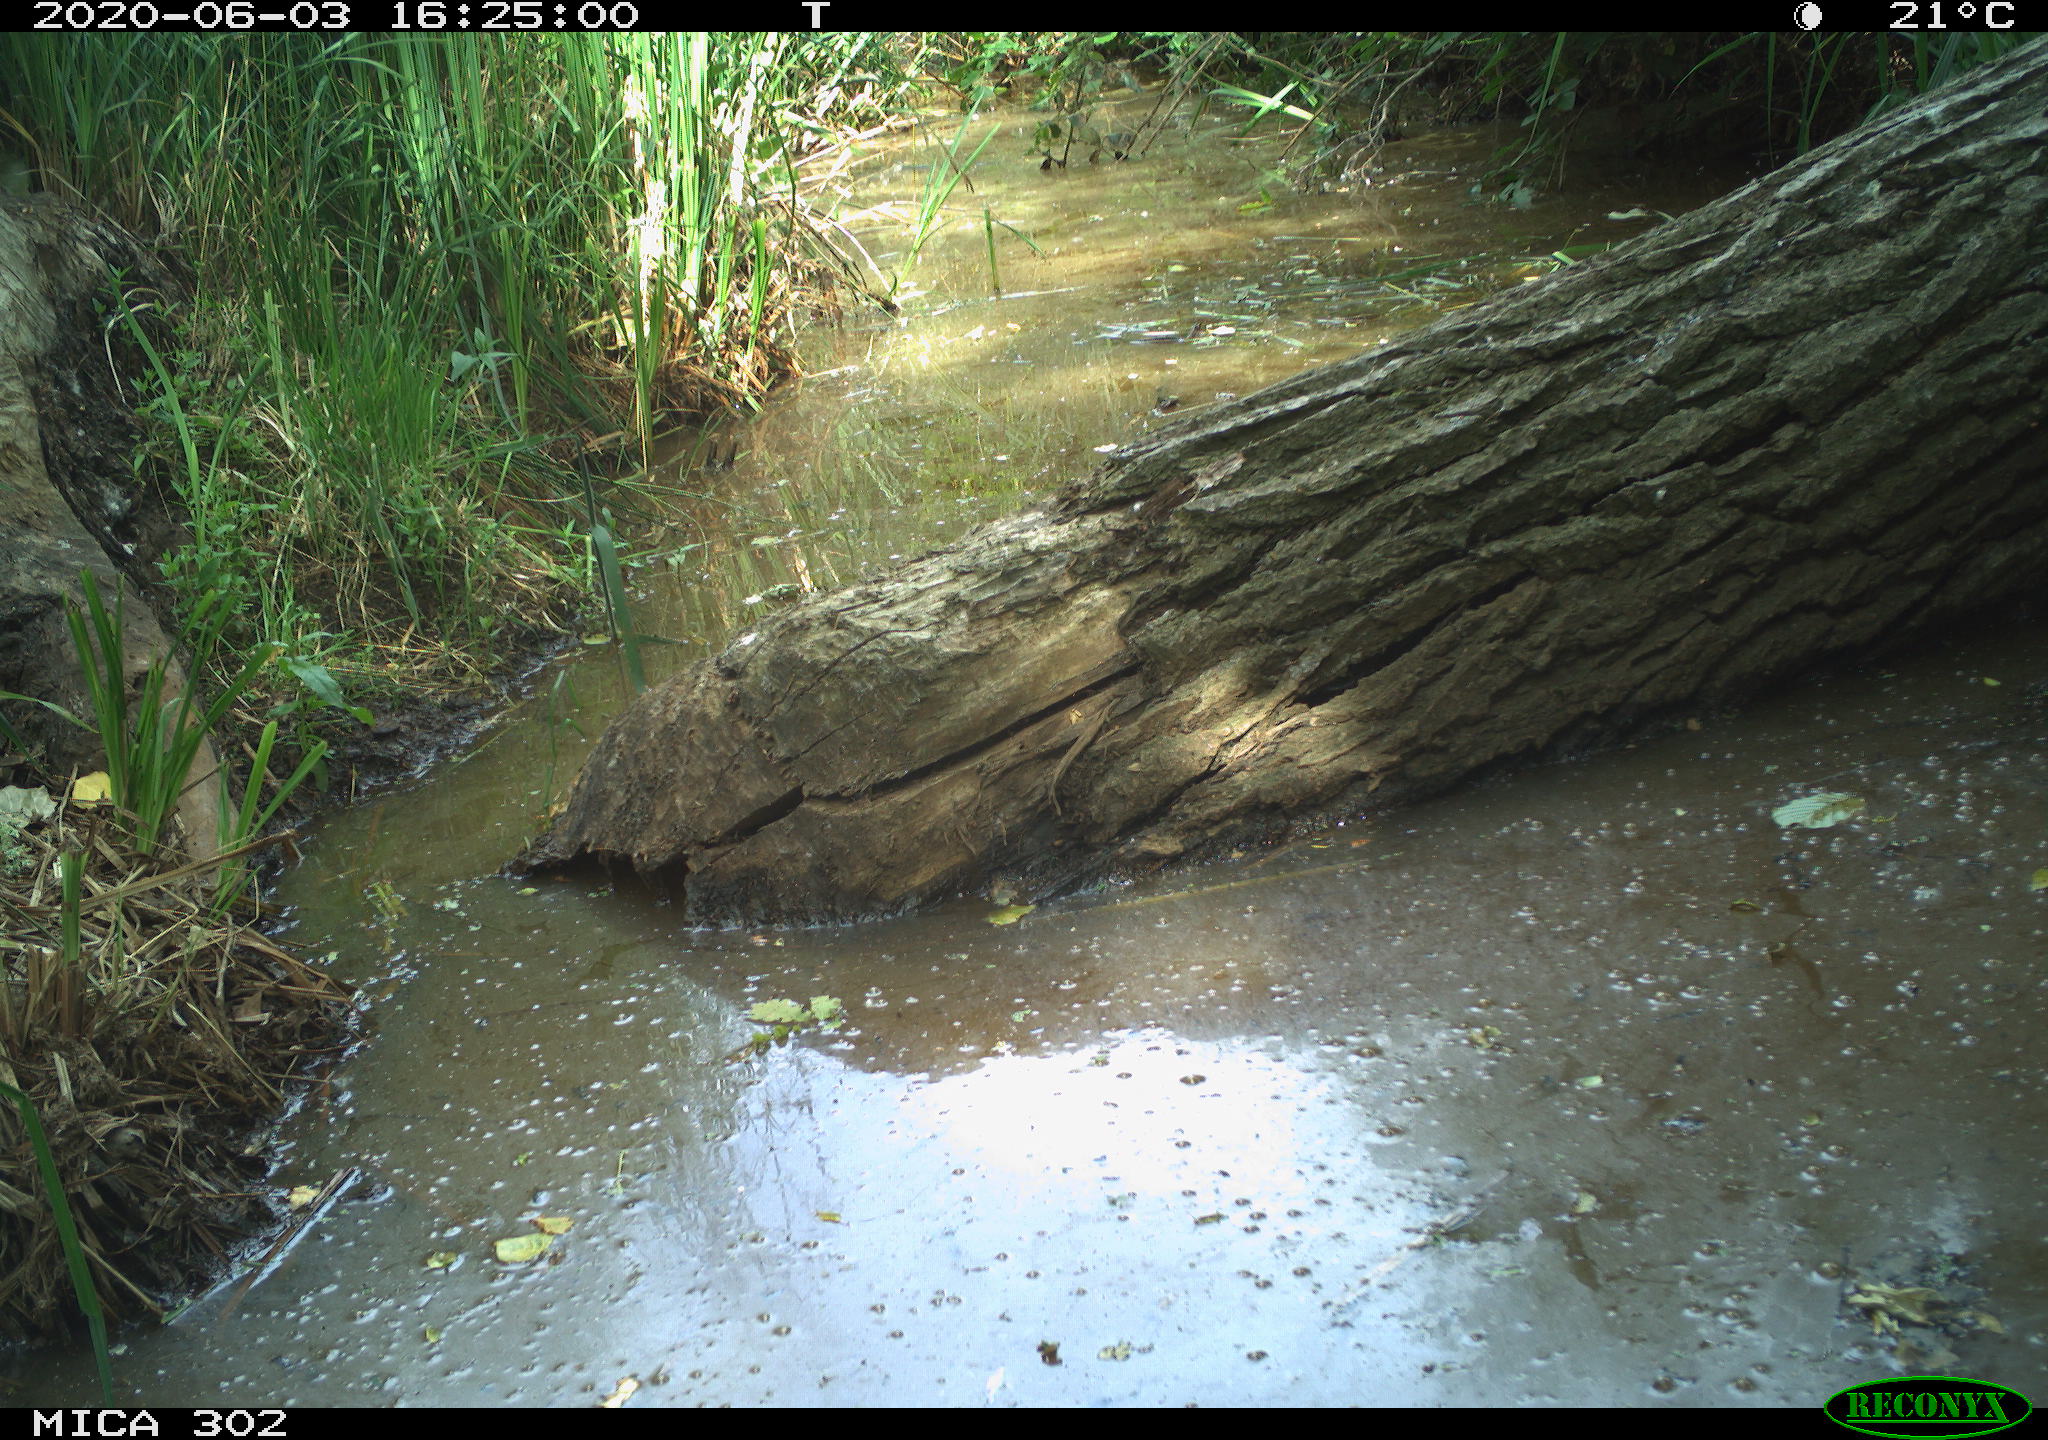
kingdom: Animalia
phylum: Chordata
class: Aves
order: Passeriformes
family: Turdidae
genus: Turdus
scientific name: Turdus philomelos
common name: Song thrush
